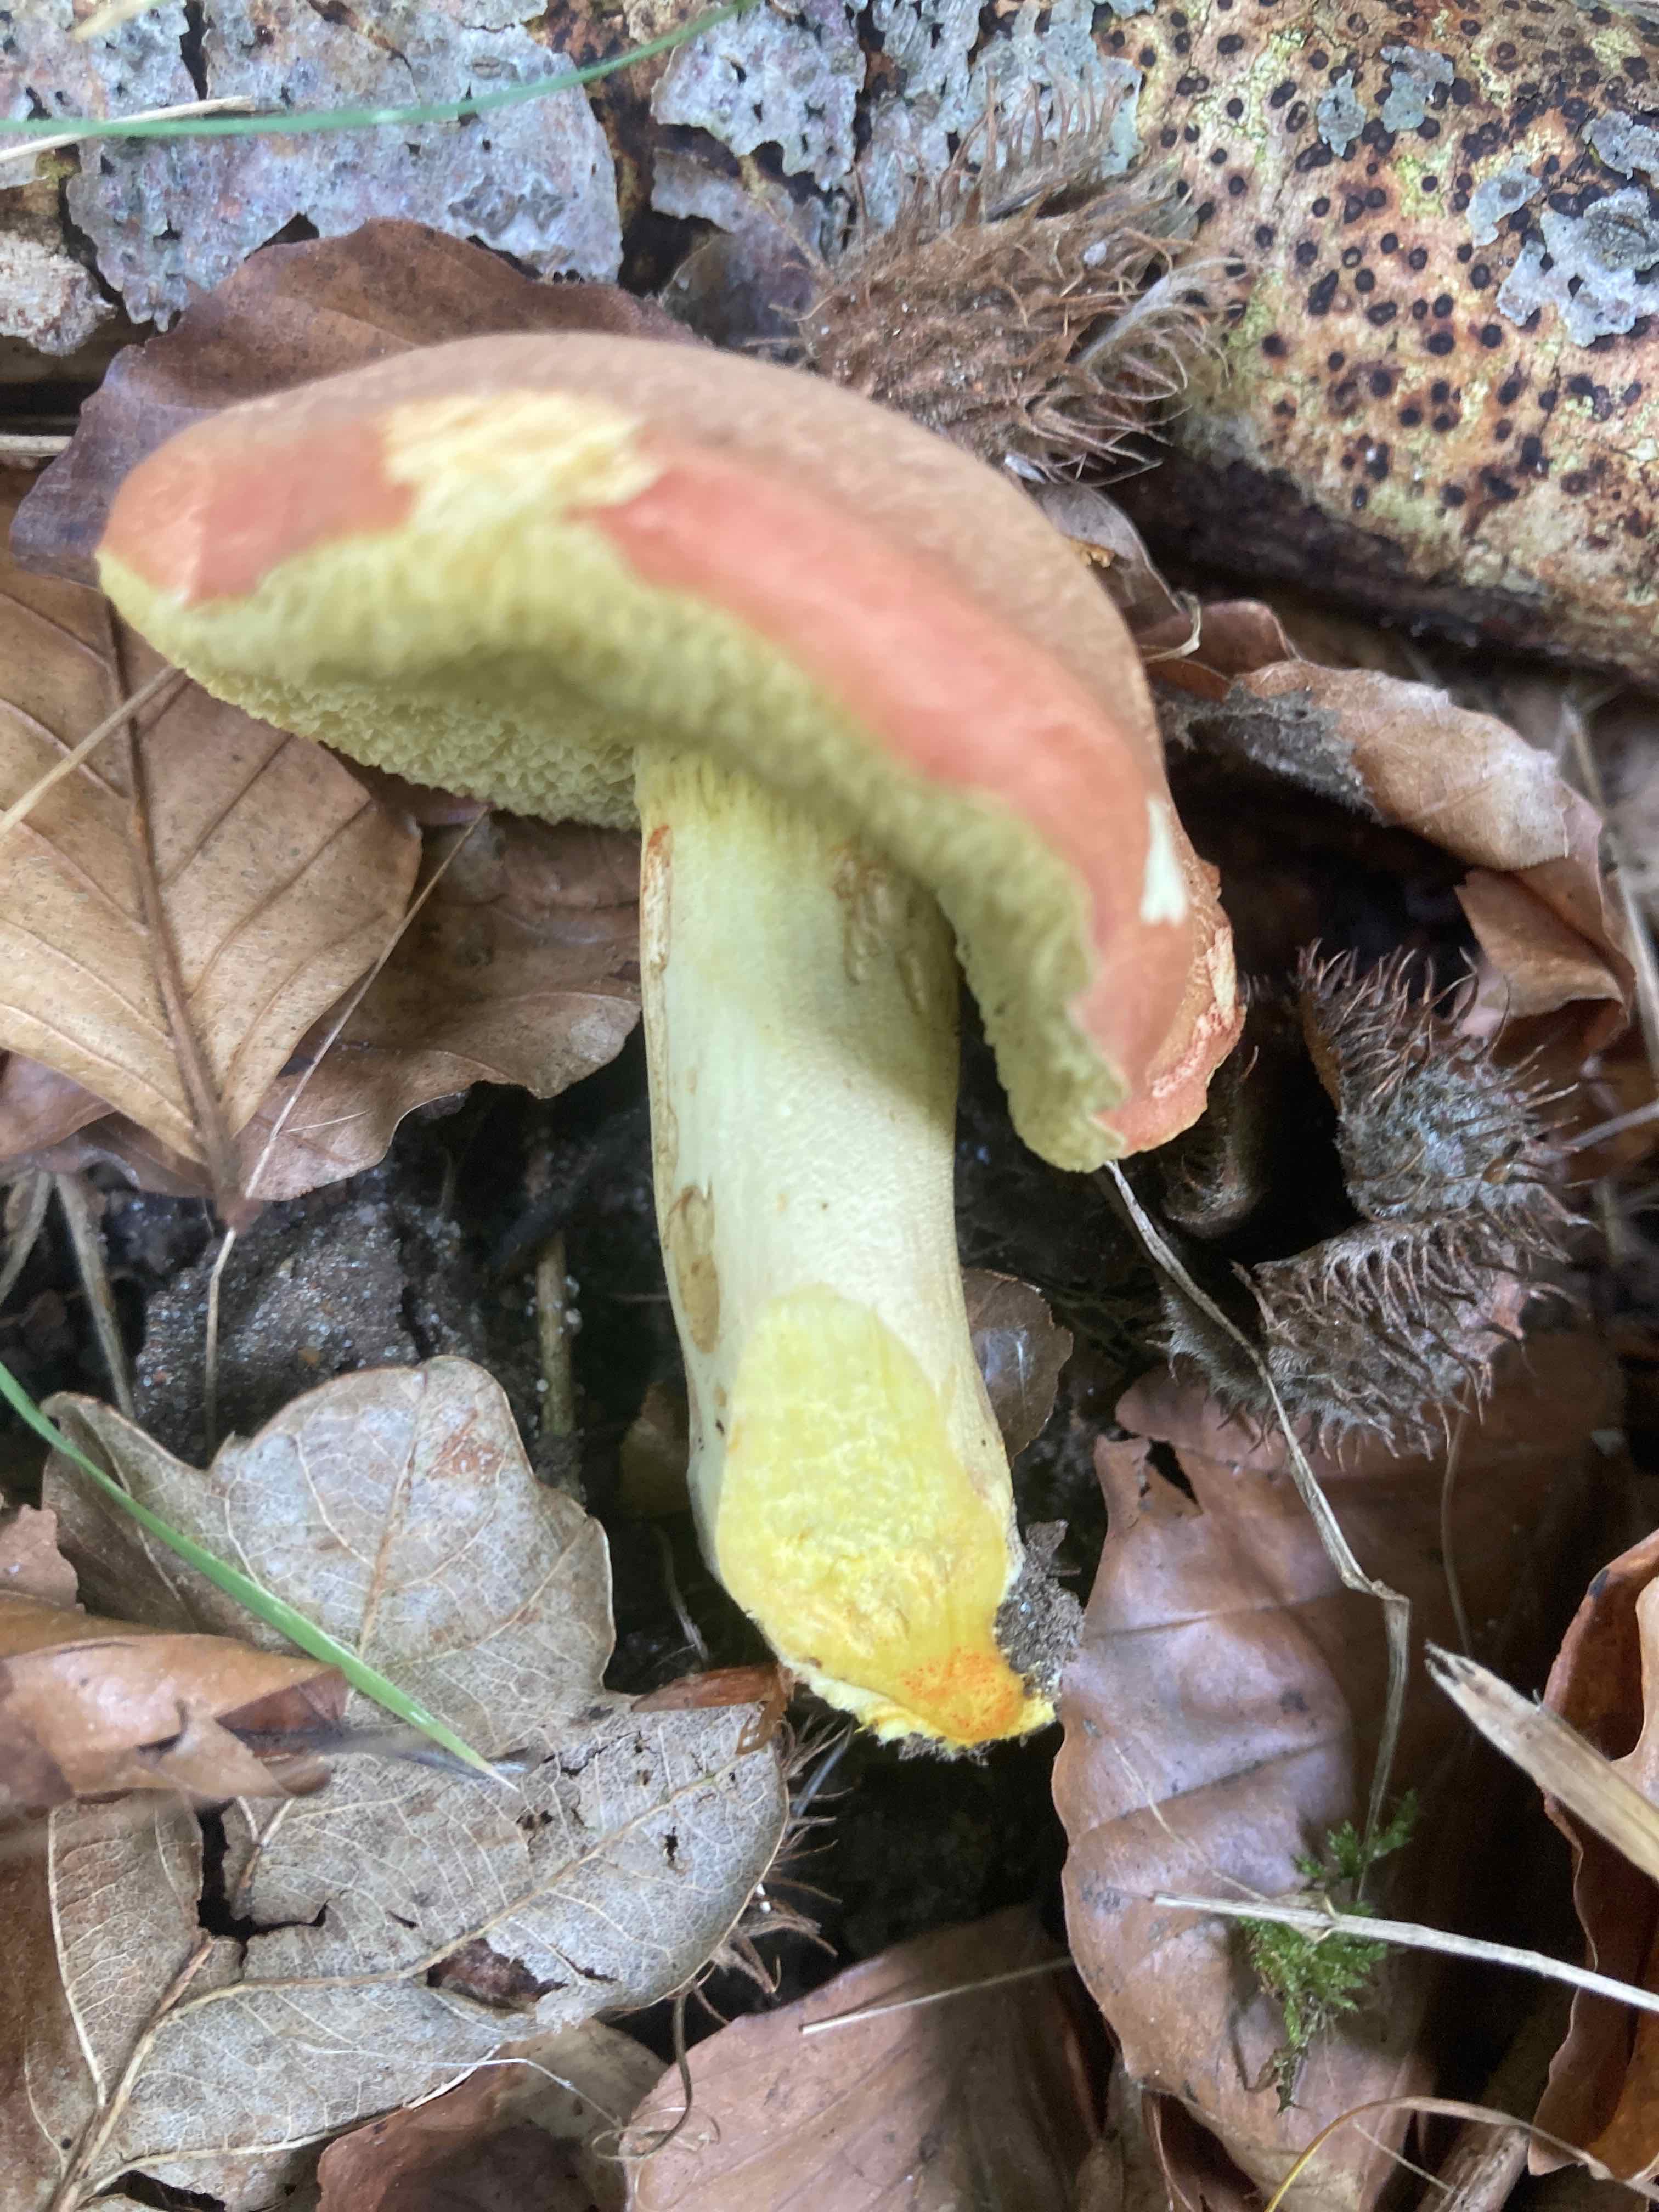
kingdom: Fungi
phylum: Basidiomycota
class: Agaricomycetes
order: Boletales
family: Boletaceae
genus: Hortiboletus
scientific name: Hortiboletus engelii
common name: fersken-rørhat
